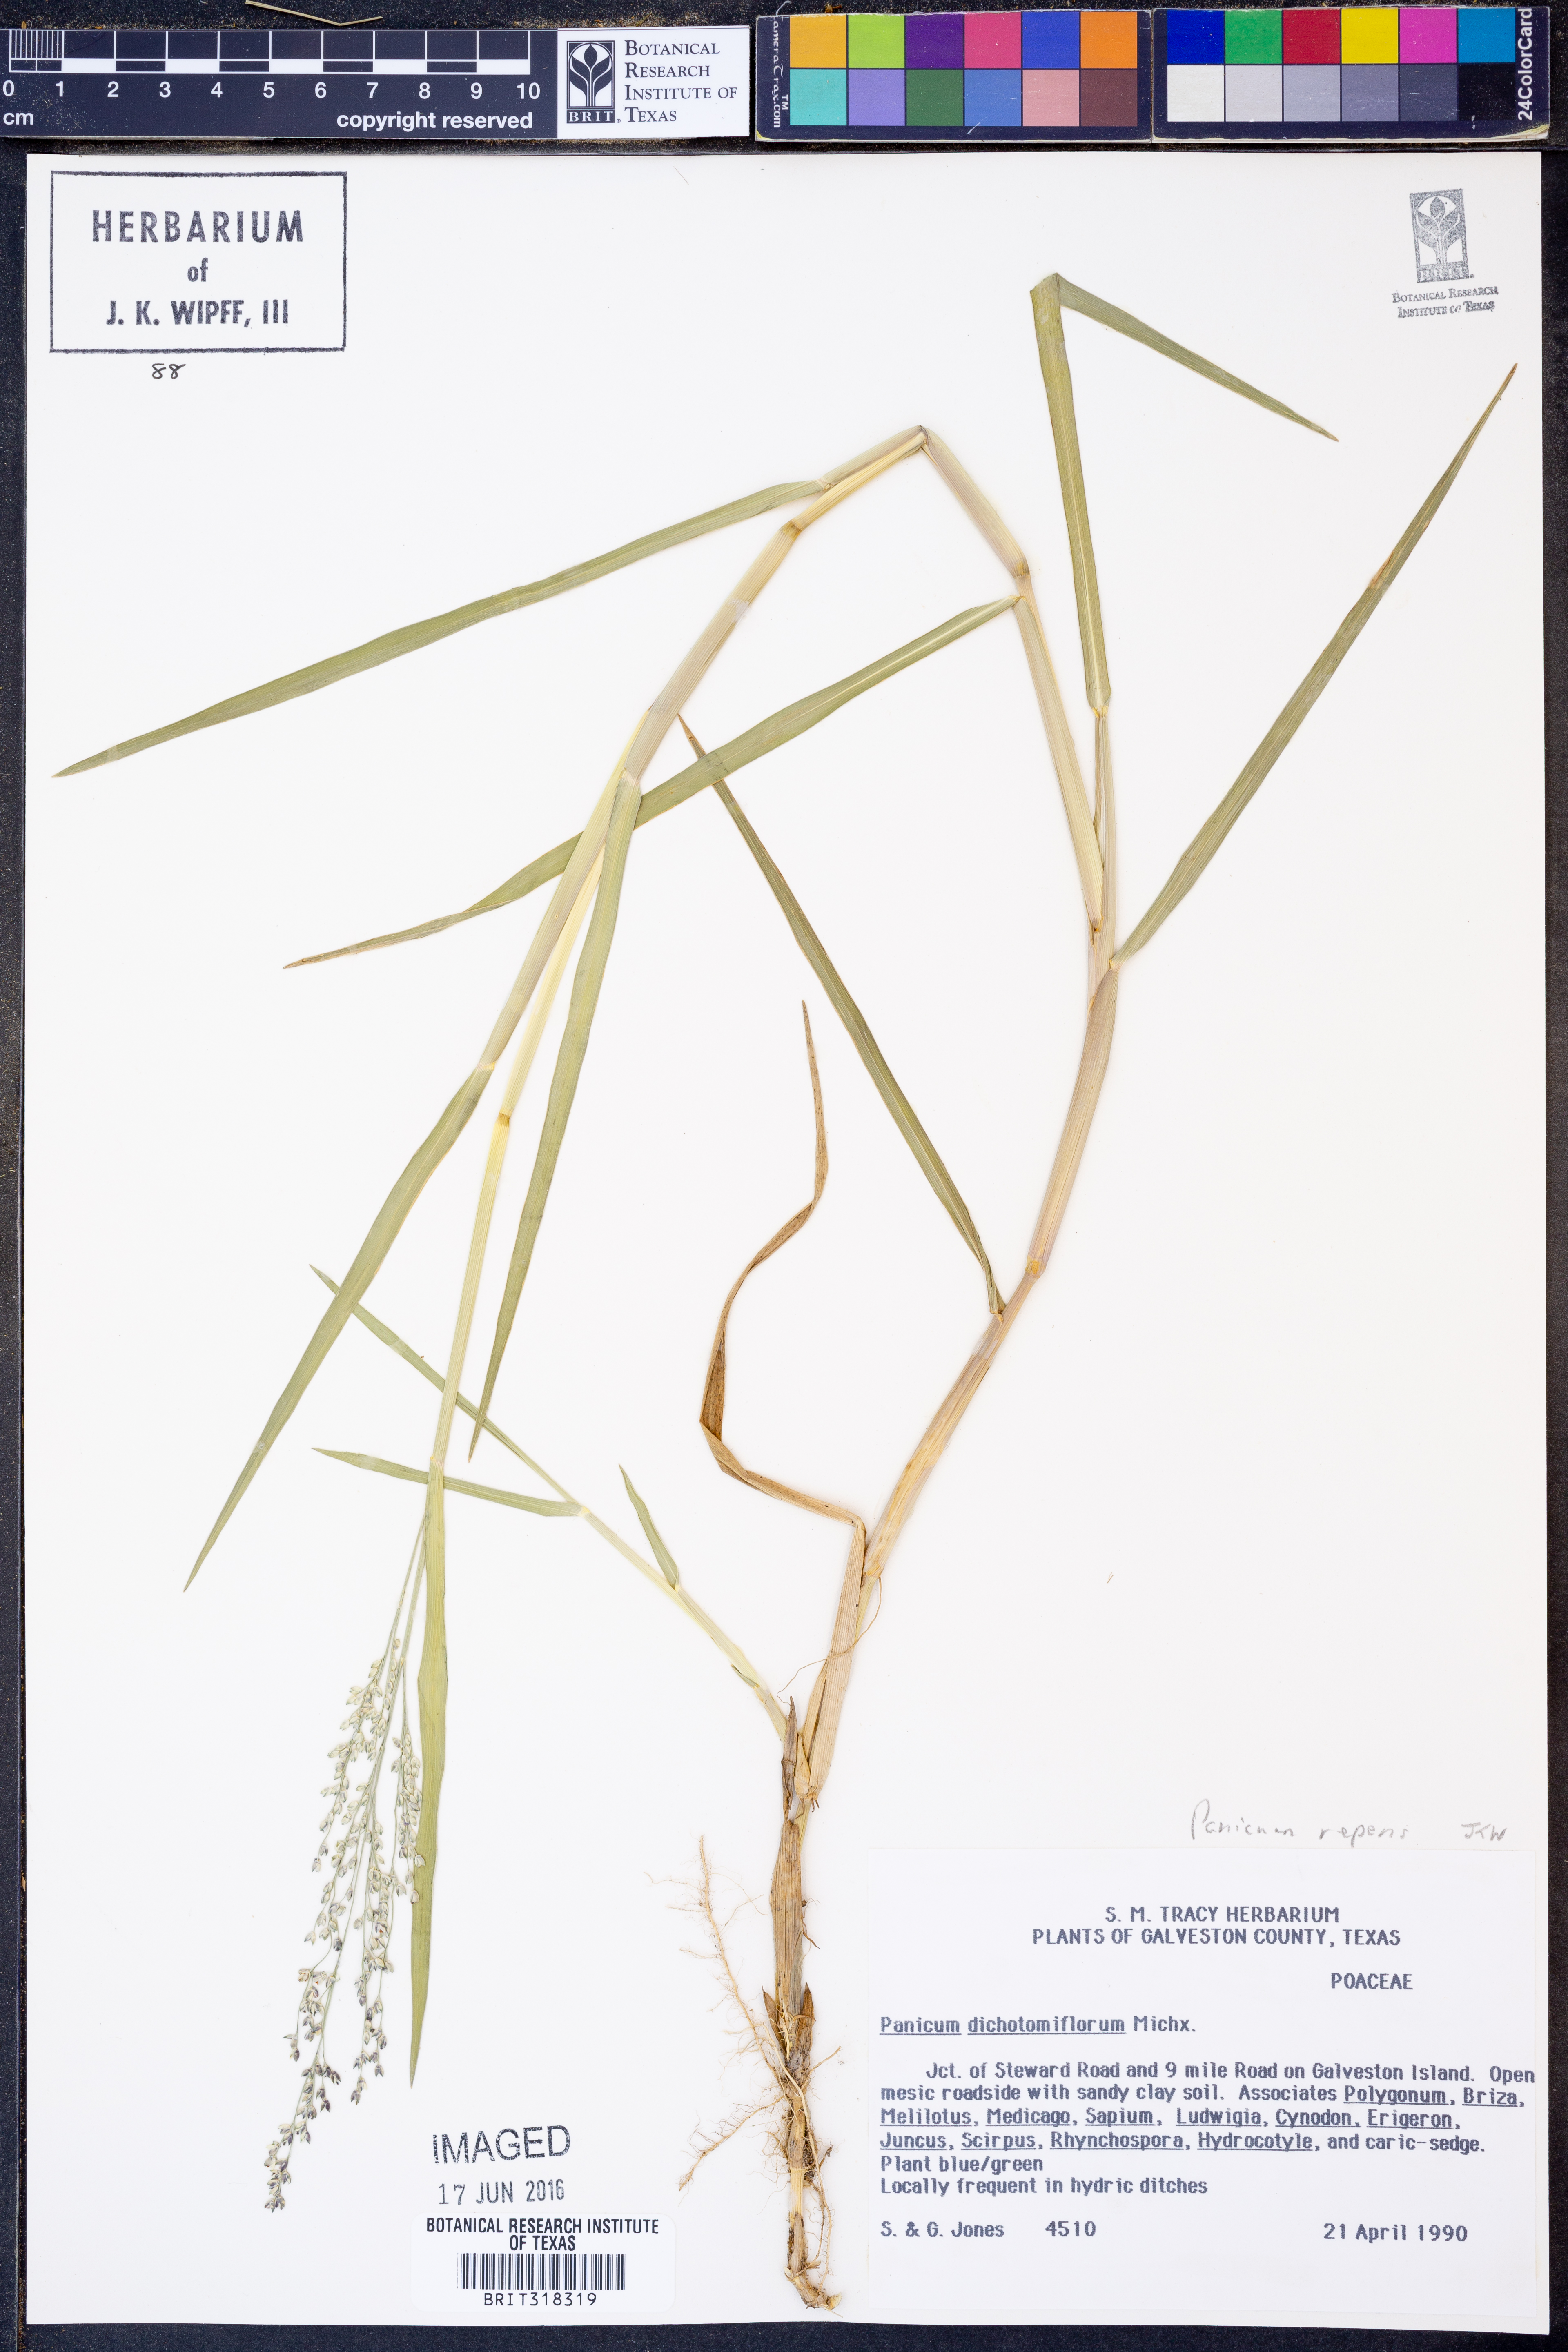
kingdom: Plantae
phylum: Tracheophyta
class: Liliopsida
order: Poales
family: Poaceae
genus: Panicum
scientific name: Panicum repens
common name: Torpedo grass
